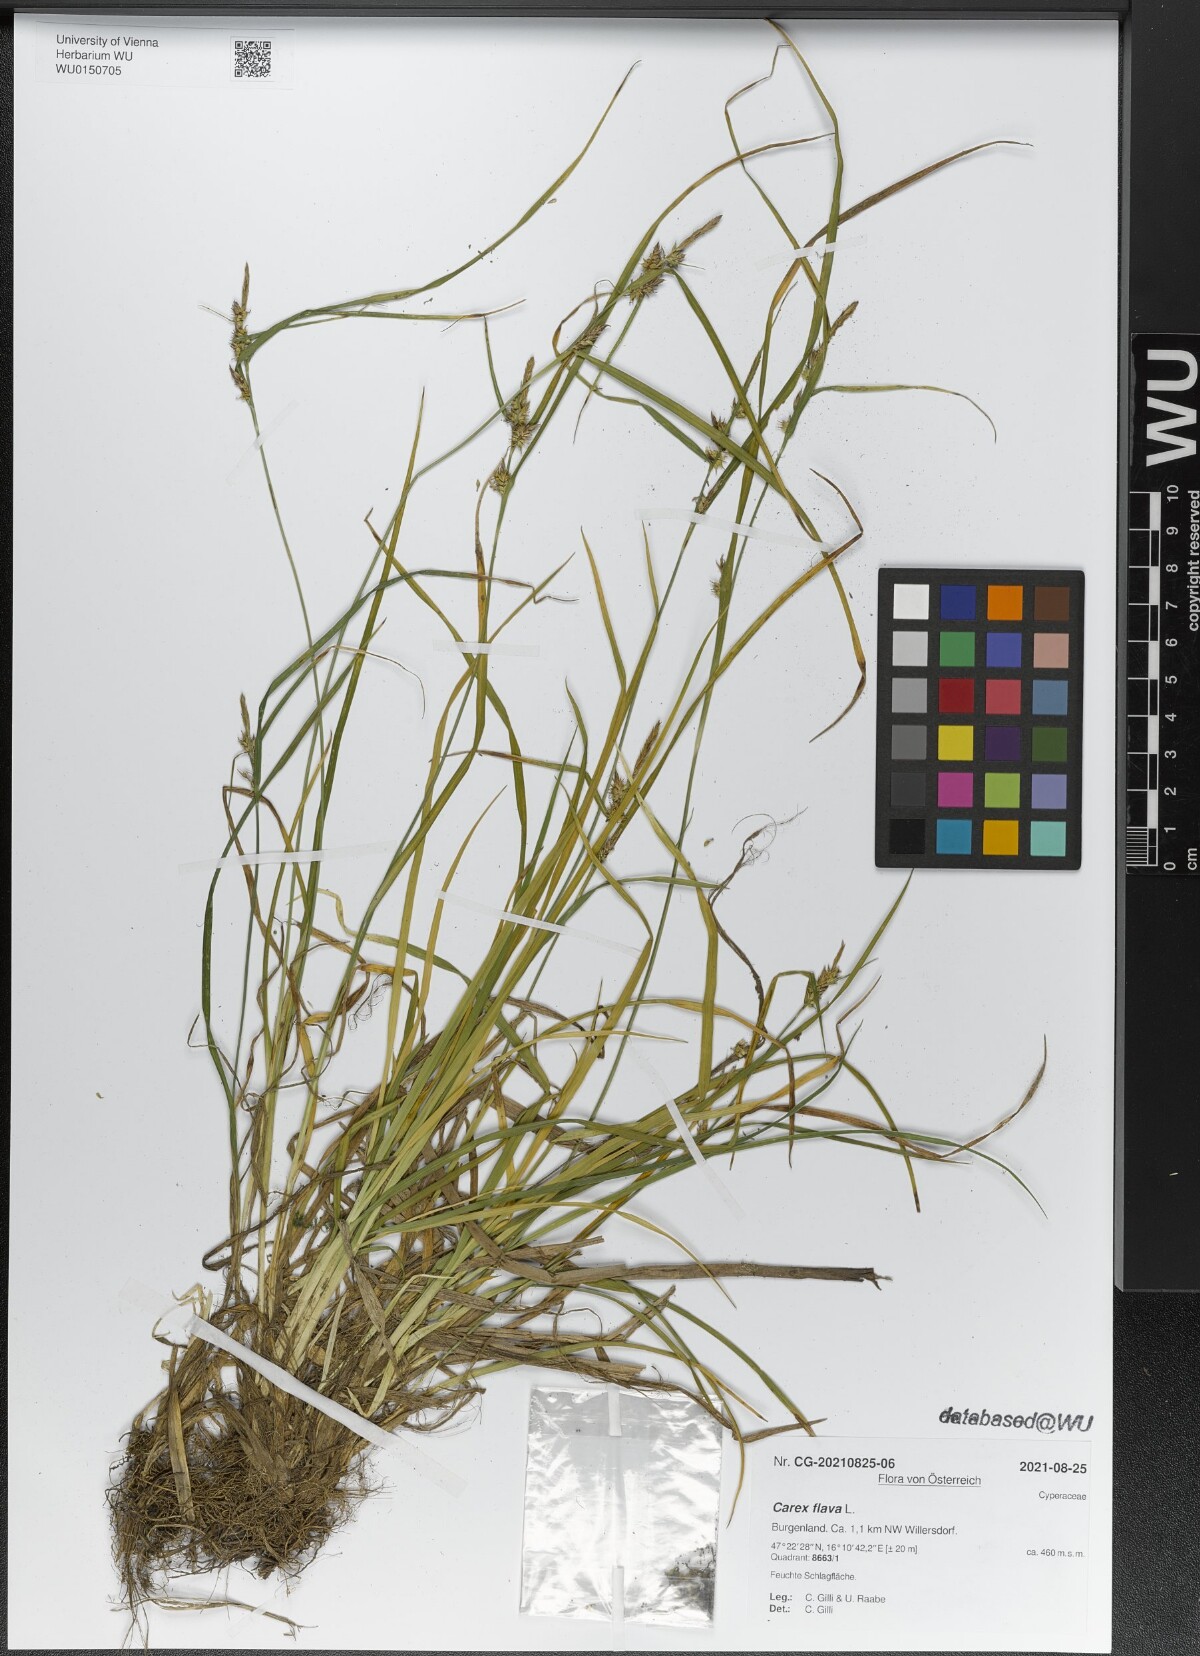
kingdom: Plantae
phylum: Tracheophyta
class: Liliopsida
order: Poales
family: Cyperaceae
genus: Carex
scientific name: Carex flava
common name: Large yellow-sedge
